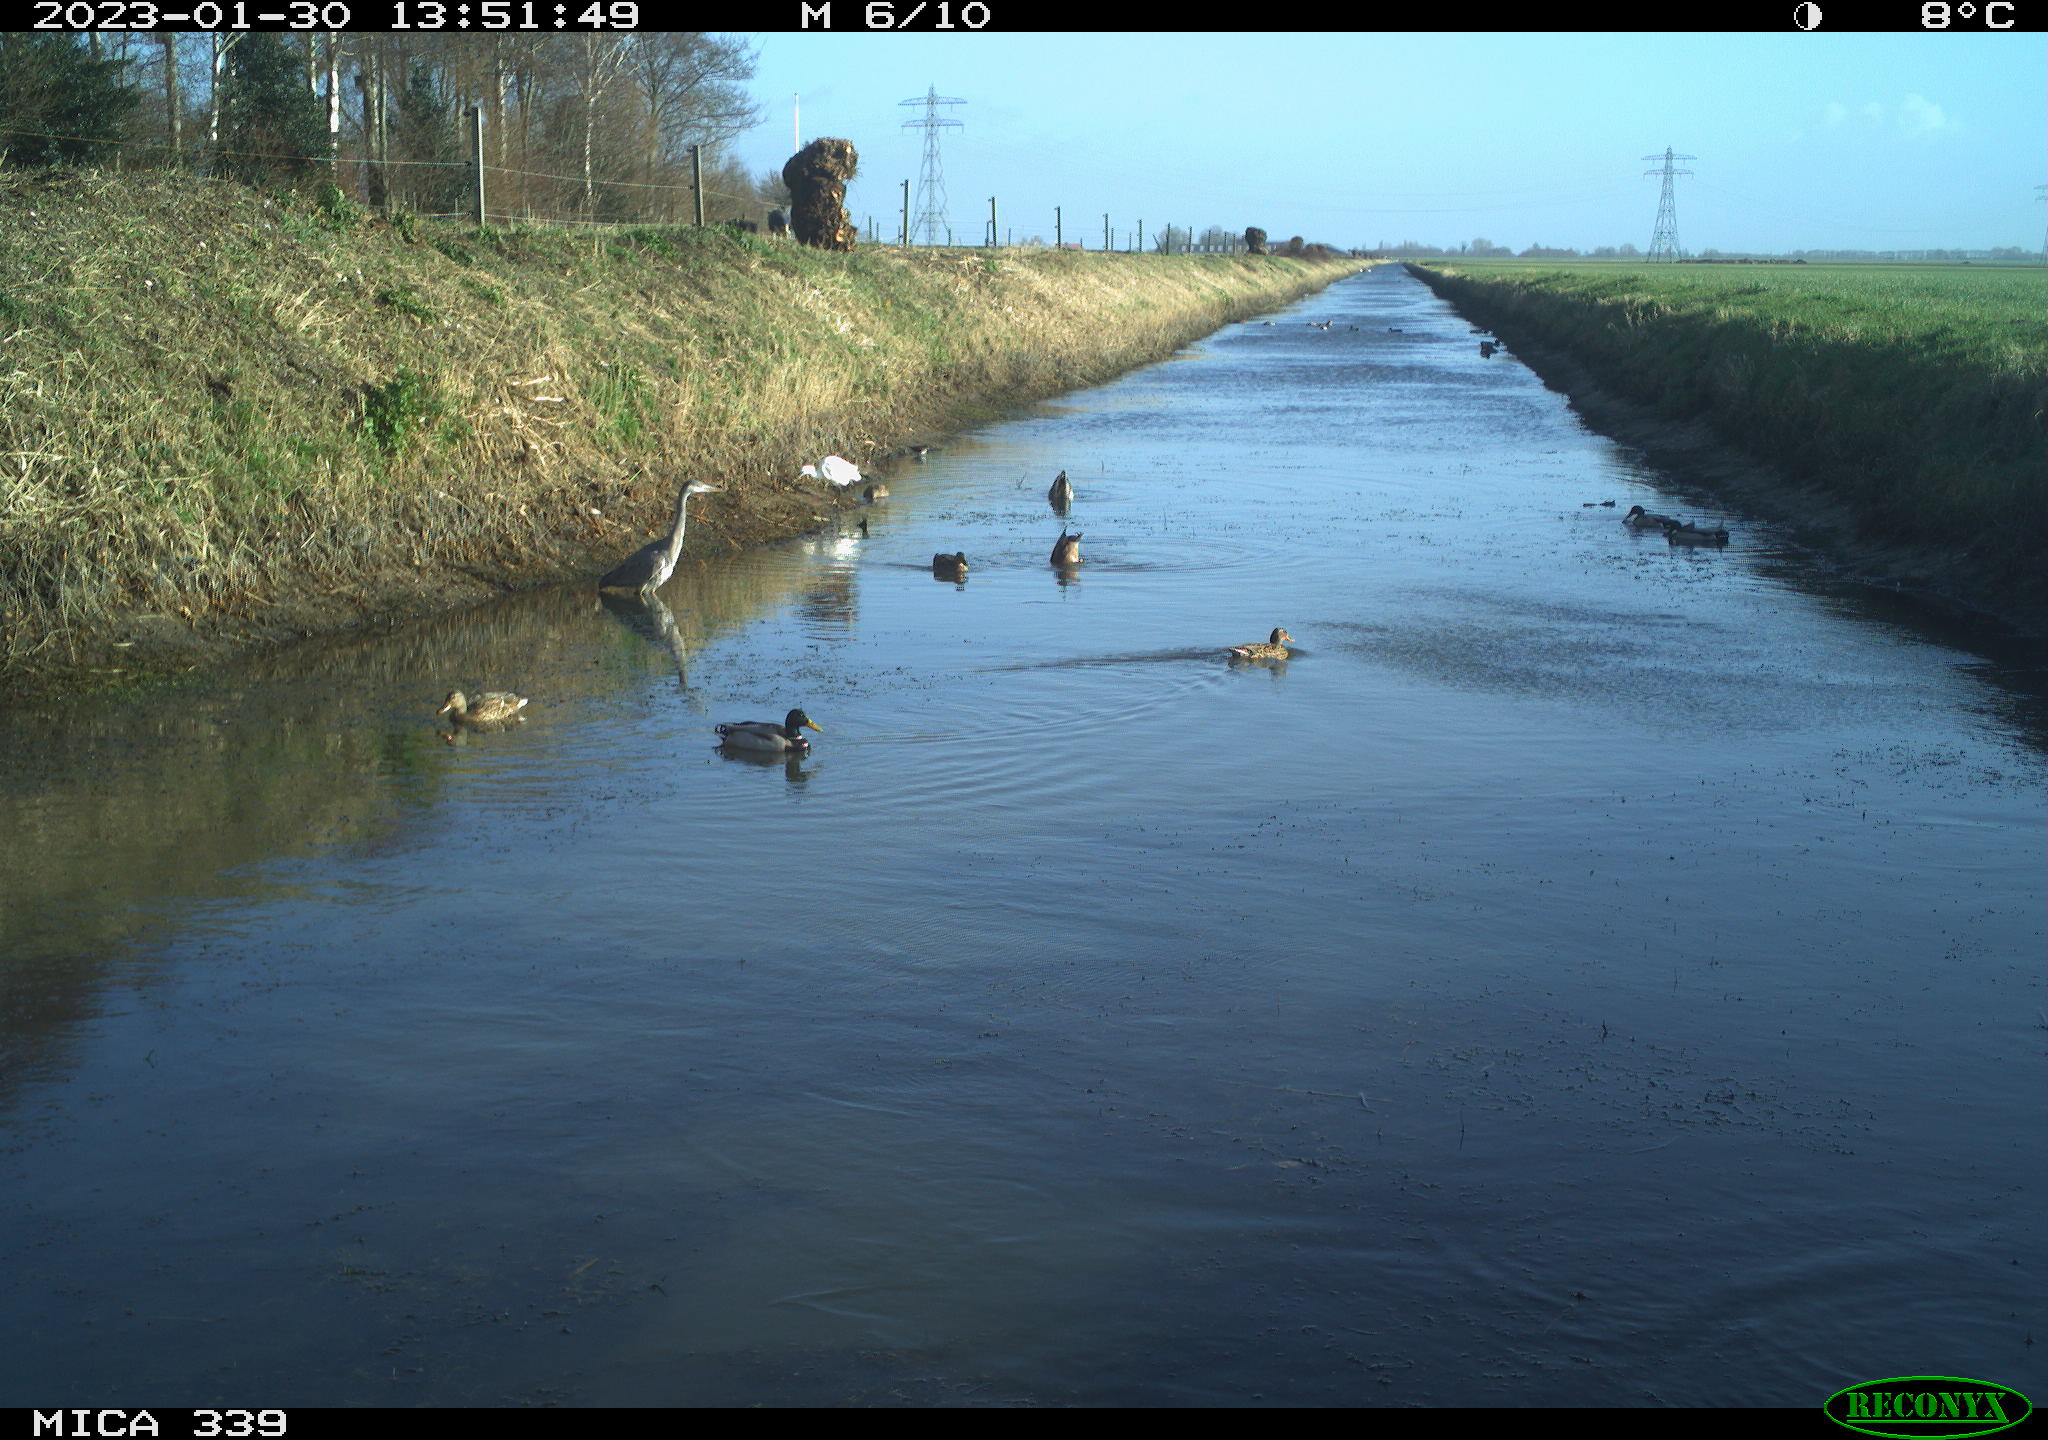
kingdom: Animalia
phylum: Chordata
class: Aves
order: Anseriformes
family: Anatidae
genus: Anas
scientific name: Anas
